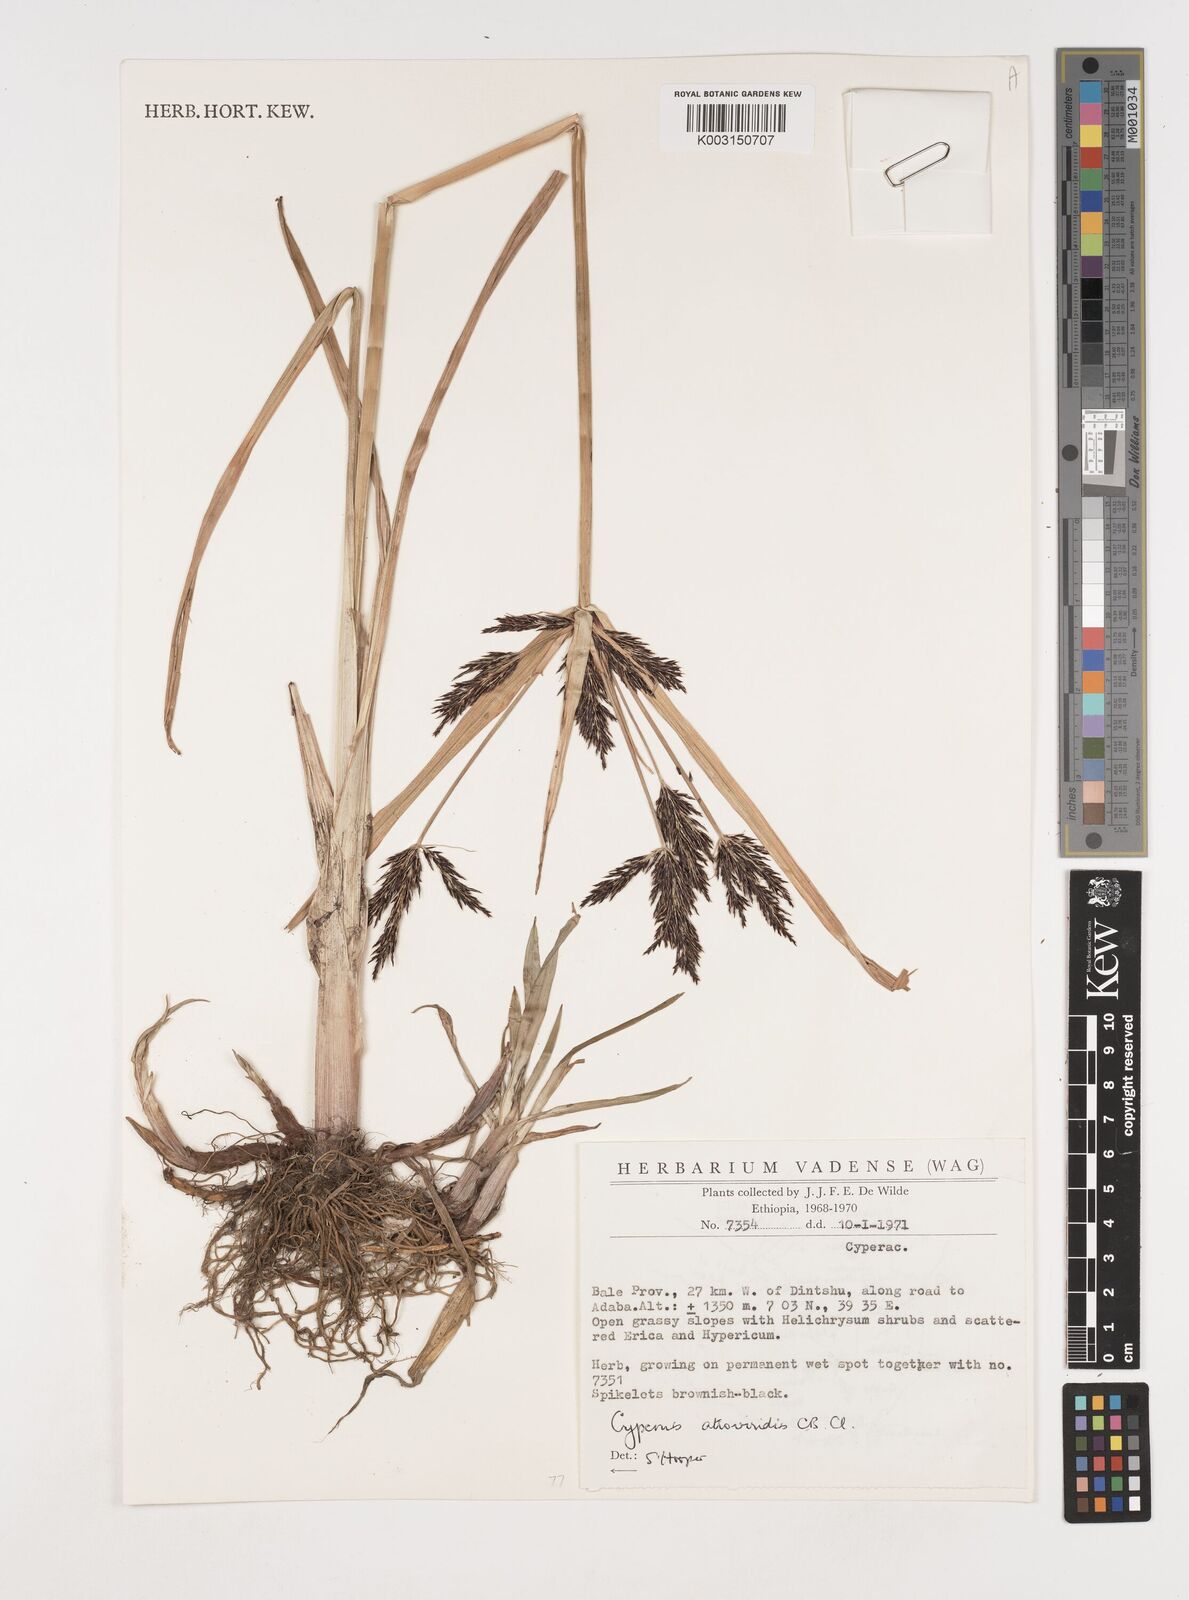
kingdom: Plantae
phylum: Tracheophyta
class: Liliopsida
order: Poales
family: Cyperaceae
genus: Cyperus
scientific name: Cyperus aterrimus
